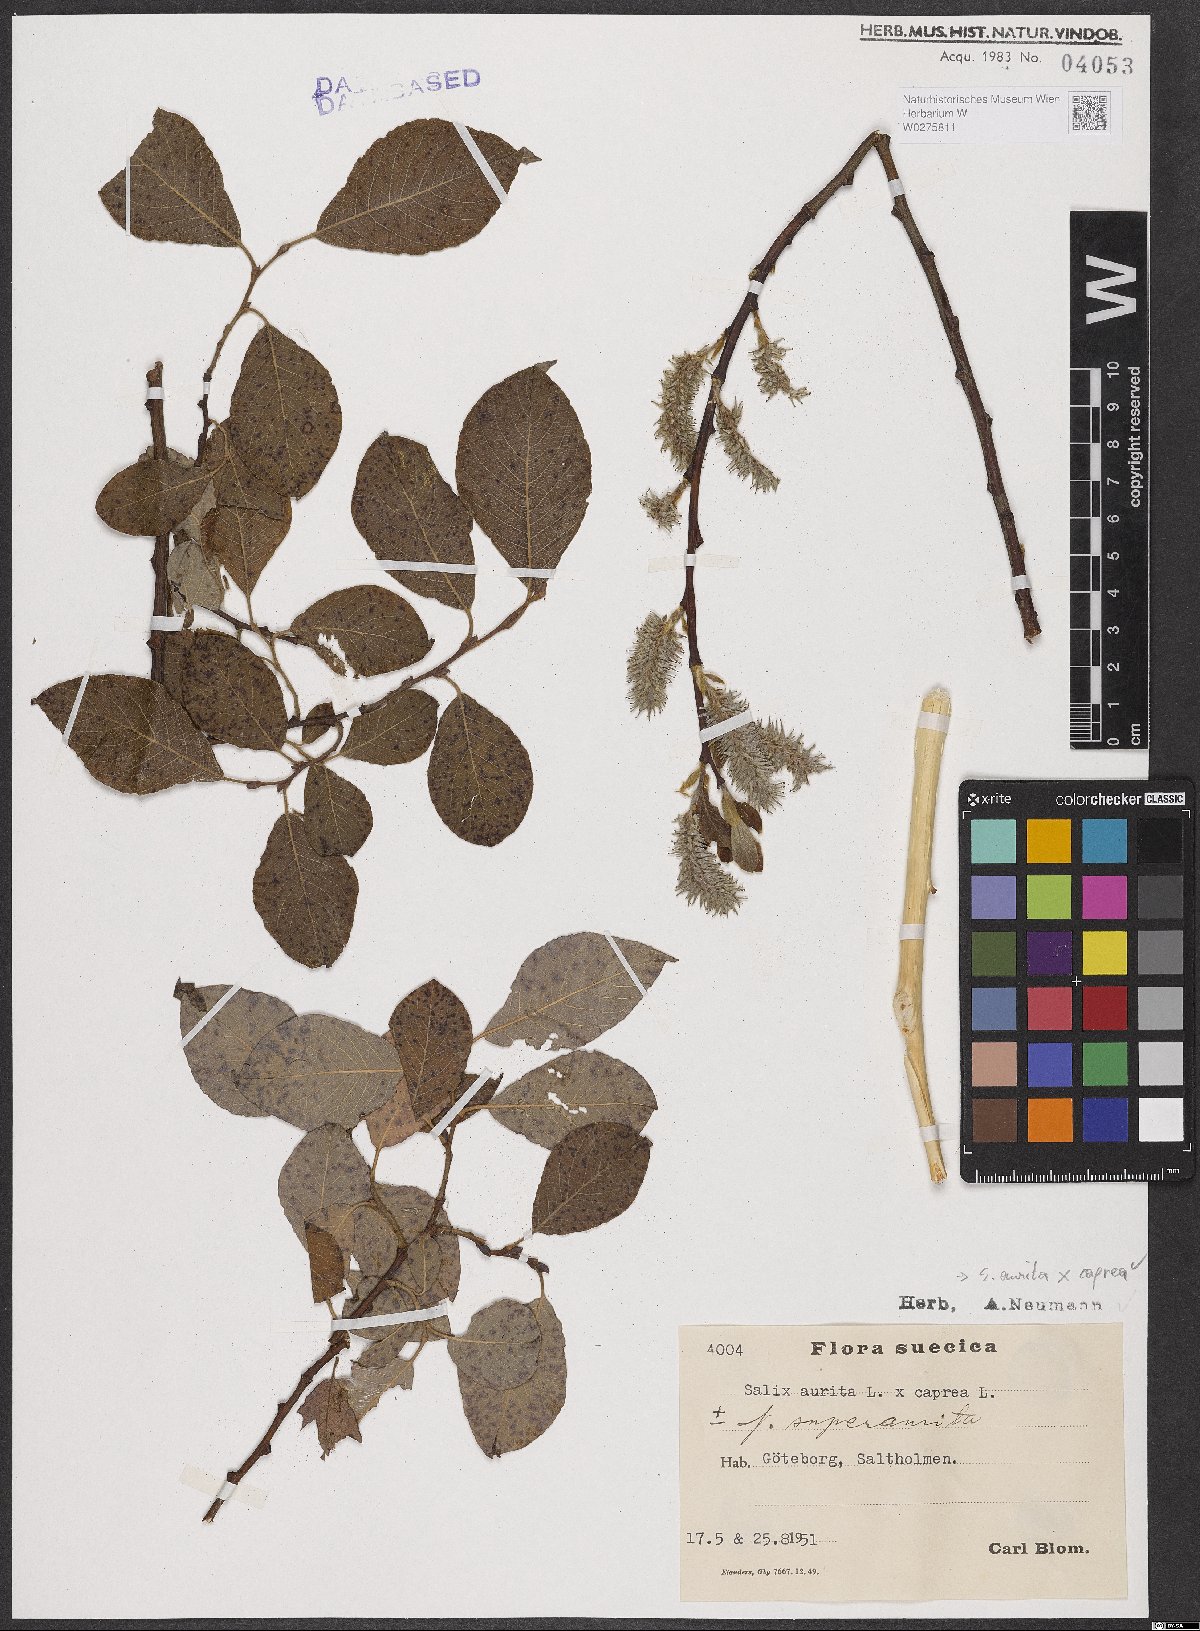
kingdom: Plantae
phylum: Tracheophyta
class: Magnoliopsida
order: Malpighiales
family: Salicaceae
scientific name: Salicaceae
